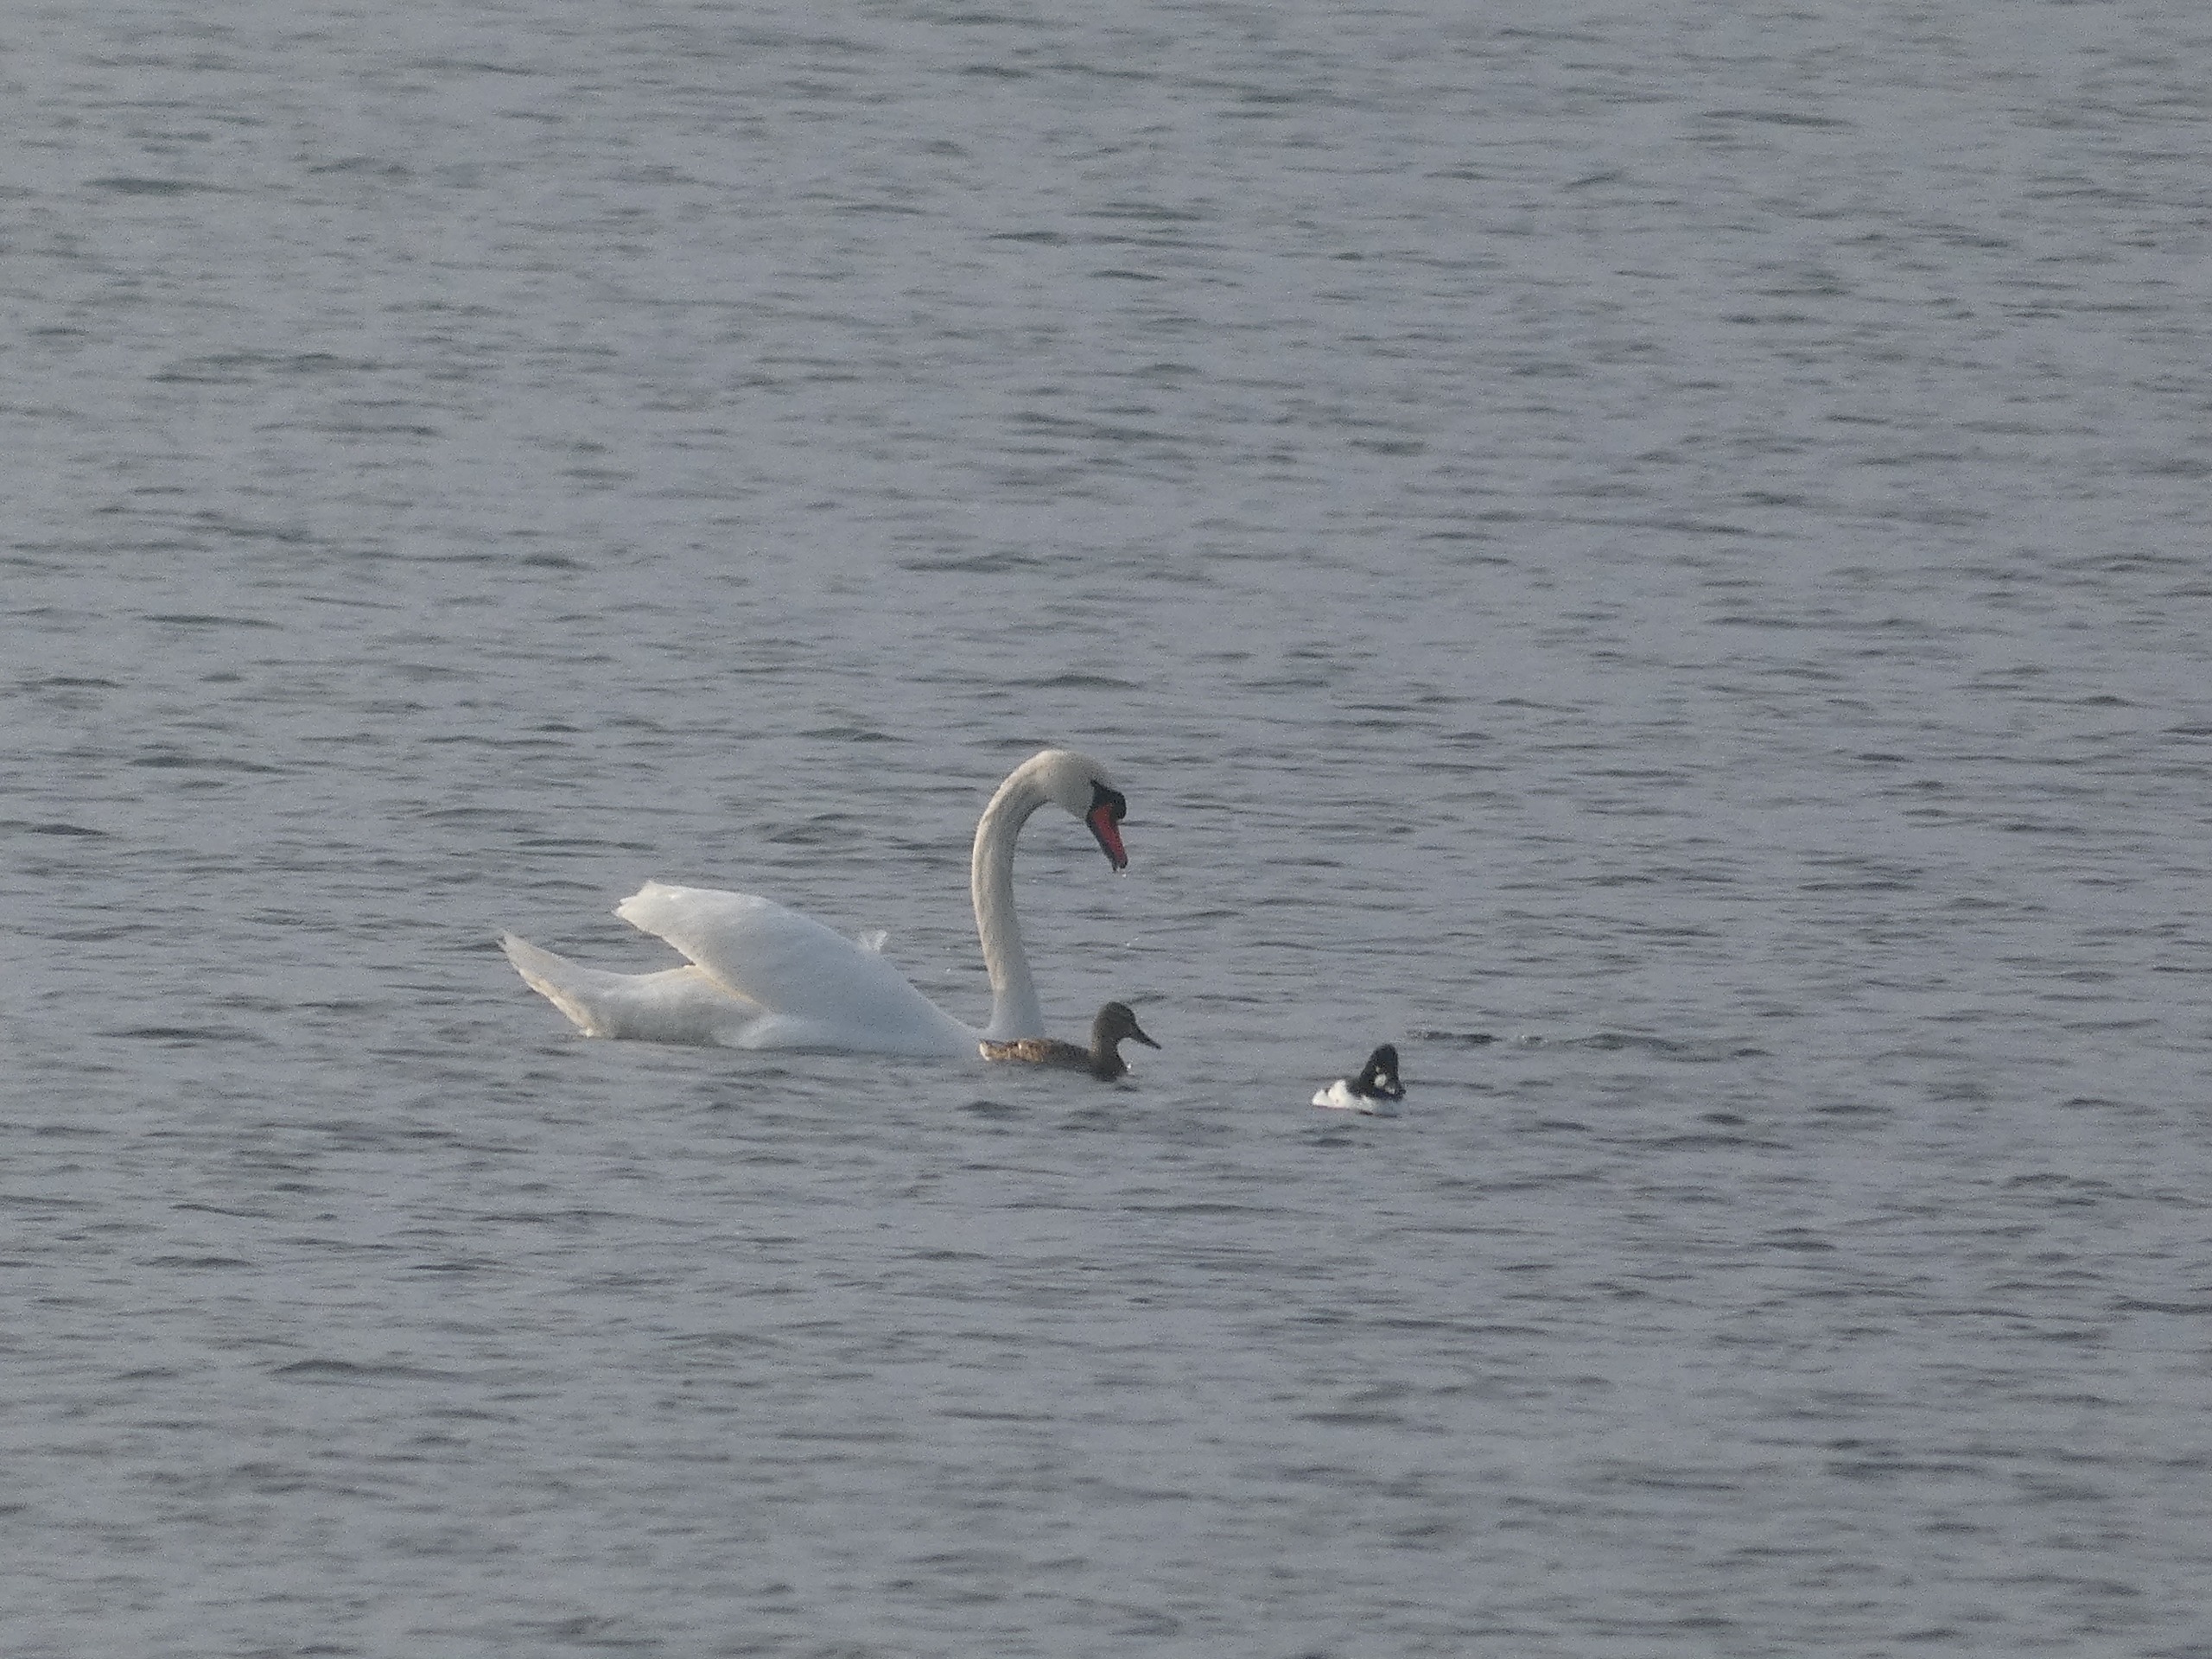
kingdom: Animalia
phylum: Chordata
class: Aves
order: Anseriformes
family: Anatidae
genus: Bucephala
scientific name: Bucephala clangula
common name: Hvinand
